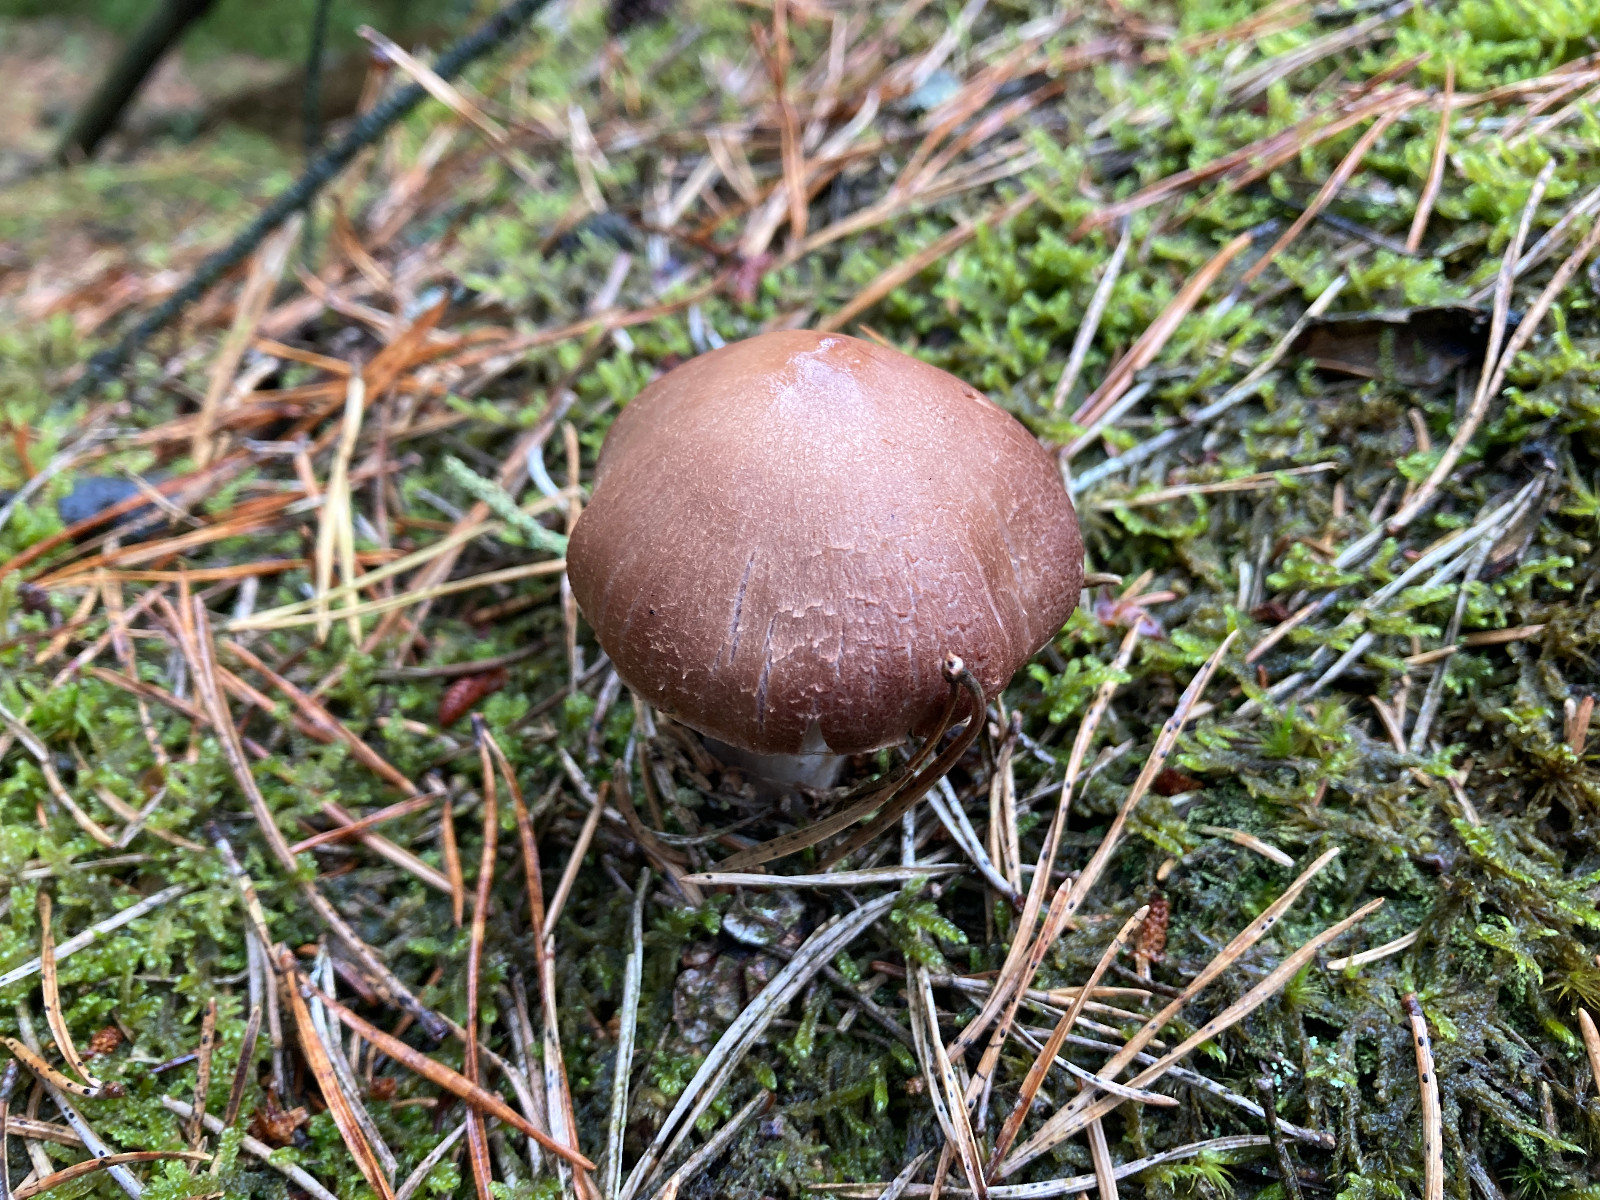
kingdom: Fungi
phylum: Basidiomycota
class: Agaricomycetes
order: Agaricales
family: Cortinariaceae
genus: Cortinarius
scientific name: Cortinarius
